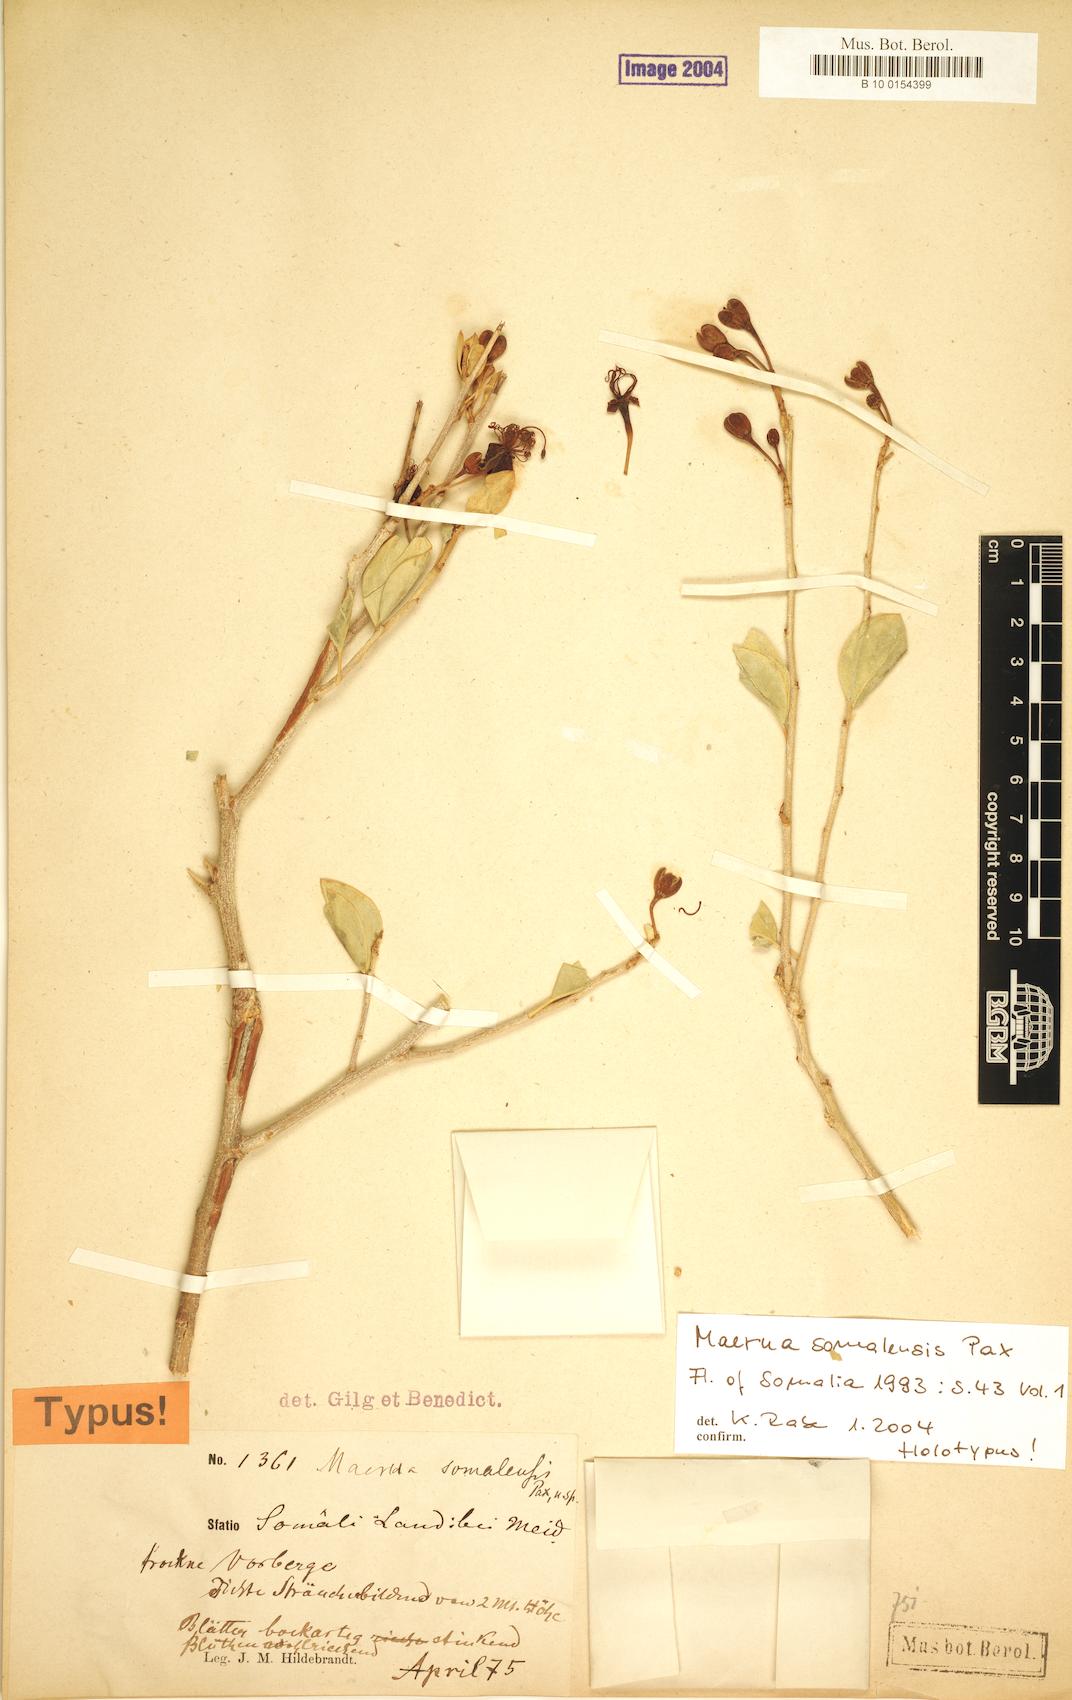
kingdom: Plantae
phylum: Tracheophyta
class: Magnoliopsida
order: Brassicales
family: Capparaceae
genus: Maerua
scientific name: Maerua somalensis
